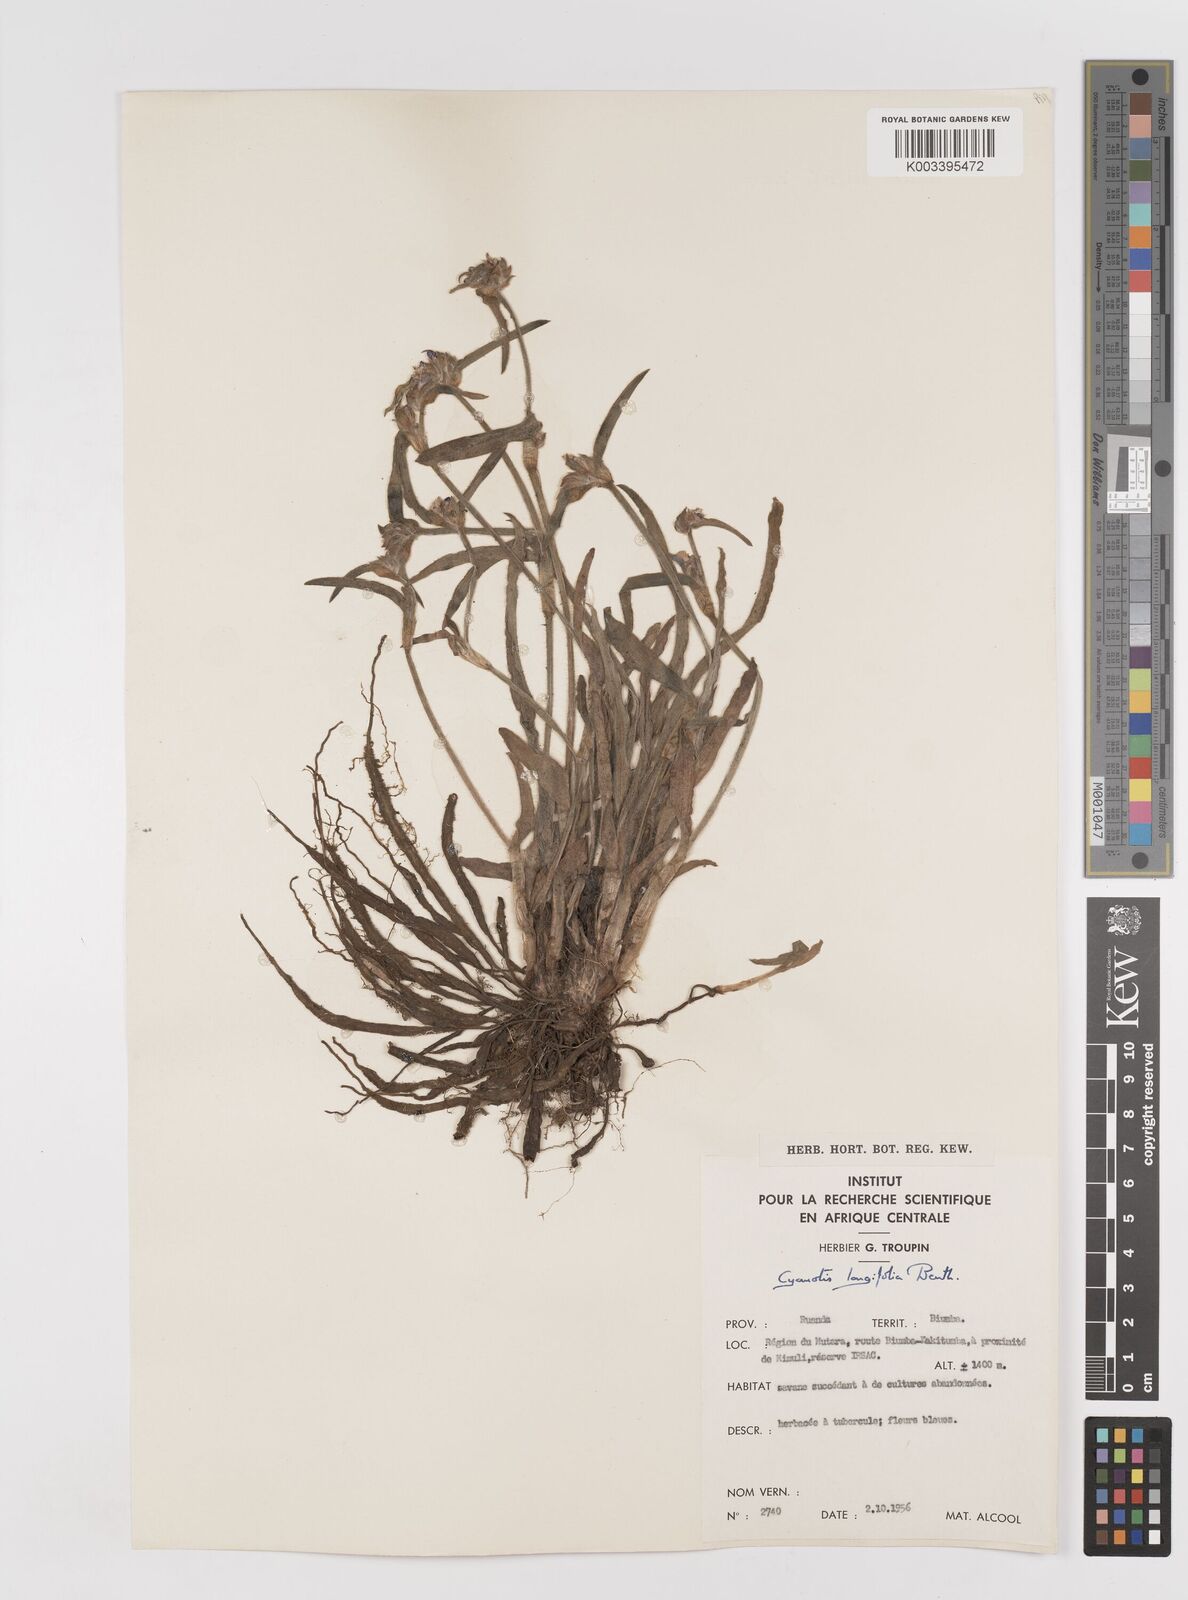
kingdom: Plantae
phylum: Tracheophyta
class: Liliopsida
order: Commelinales
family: Commelinaceae
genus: Cyanotis
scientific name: Cyanotis longifolia
